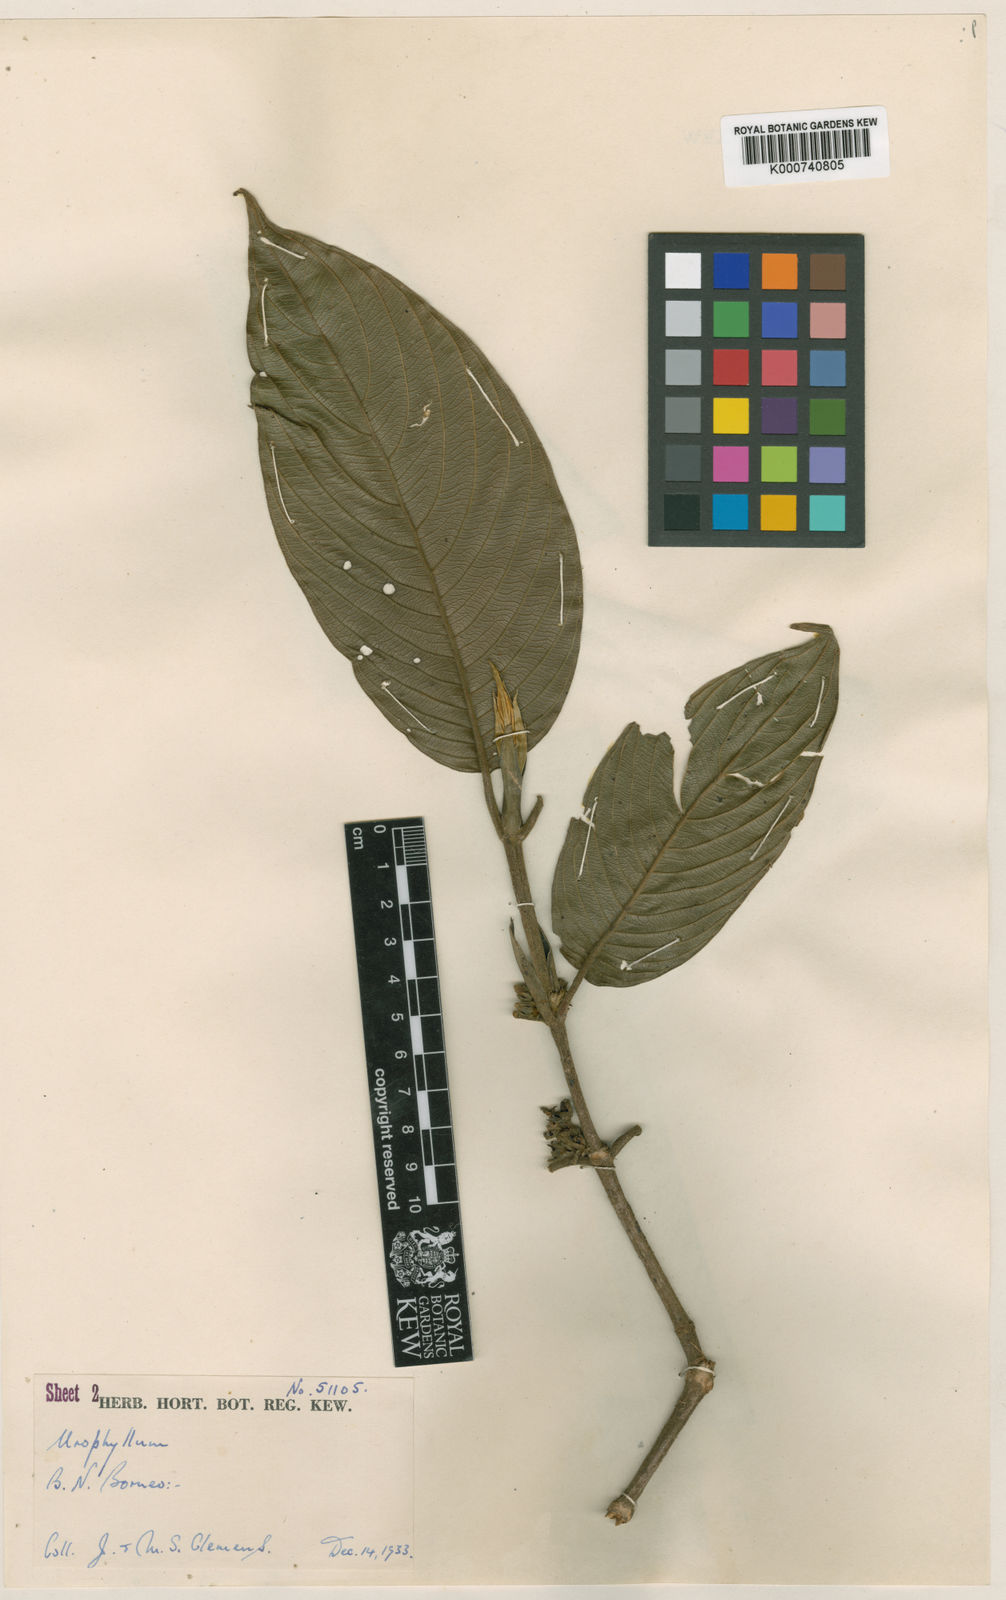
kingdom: Plantae
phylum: Tracheophyta
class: Magnoliopsida
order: Gentianales
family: Rubiaceae
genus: Urophyllum
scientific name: Urophyllum oresitrophum
